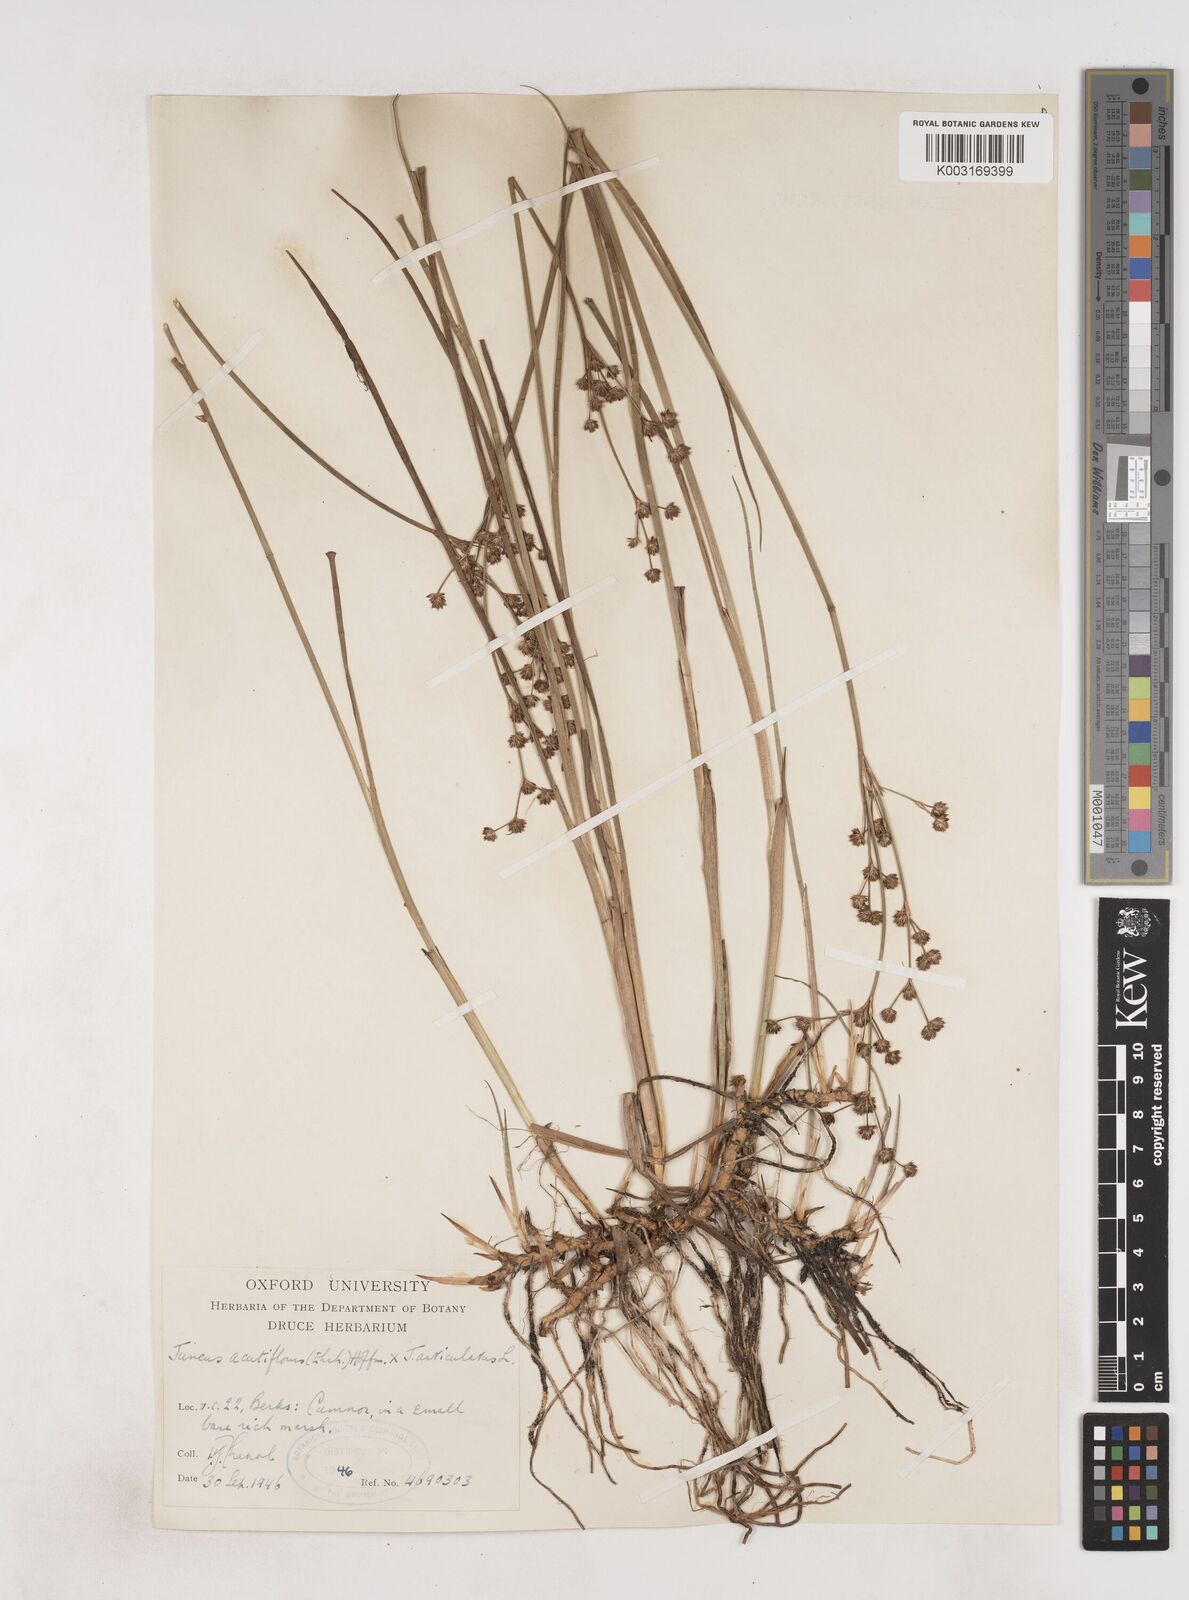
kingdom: Plantae
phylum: Tracheophyta
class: Liliopsida
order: Poales
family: Juncaceae
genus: Juncus
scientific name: Juncus acutiflorus
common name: Sharp-flowered rush
